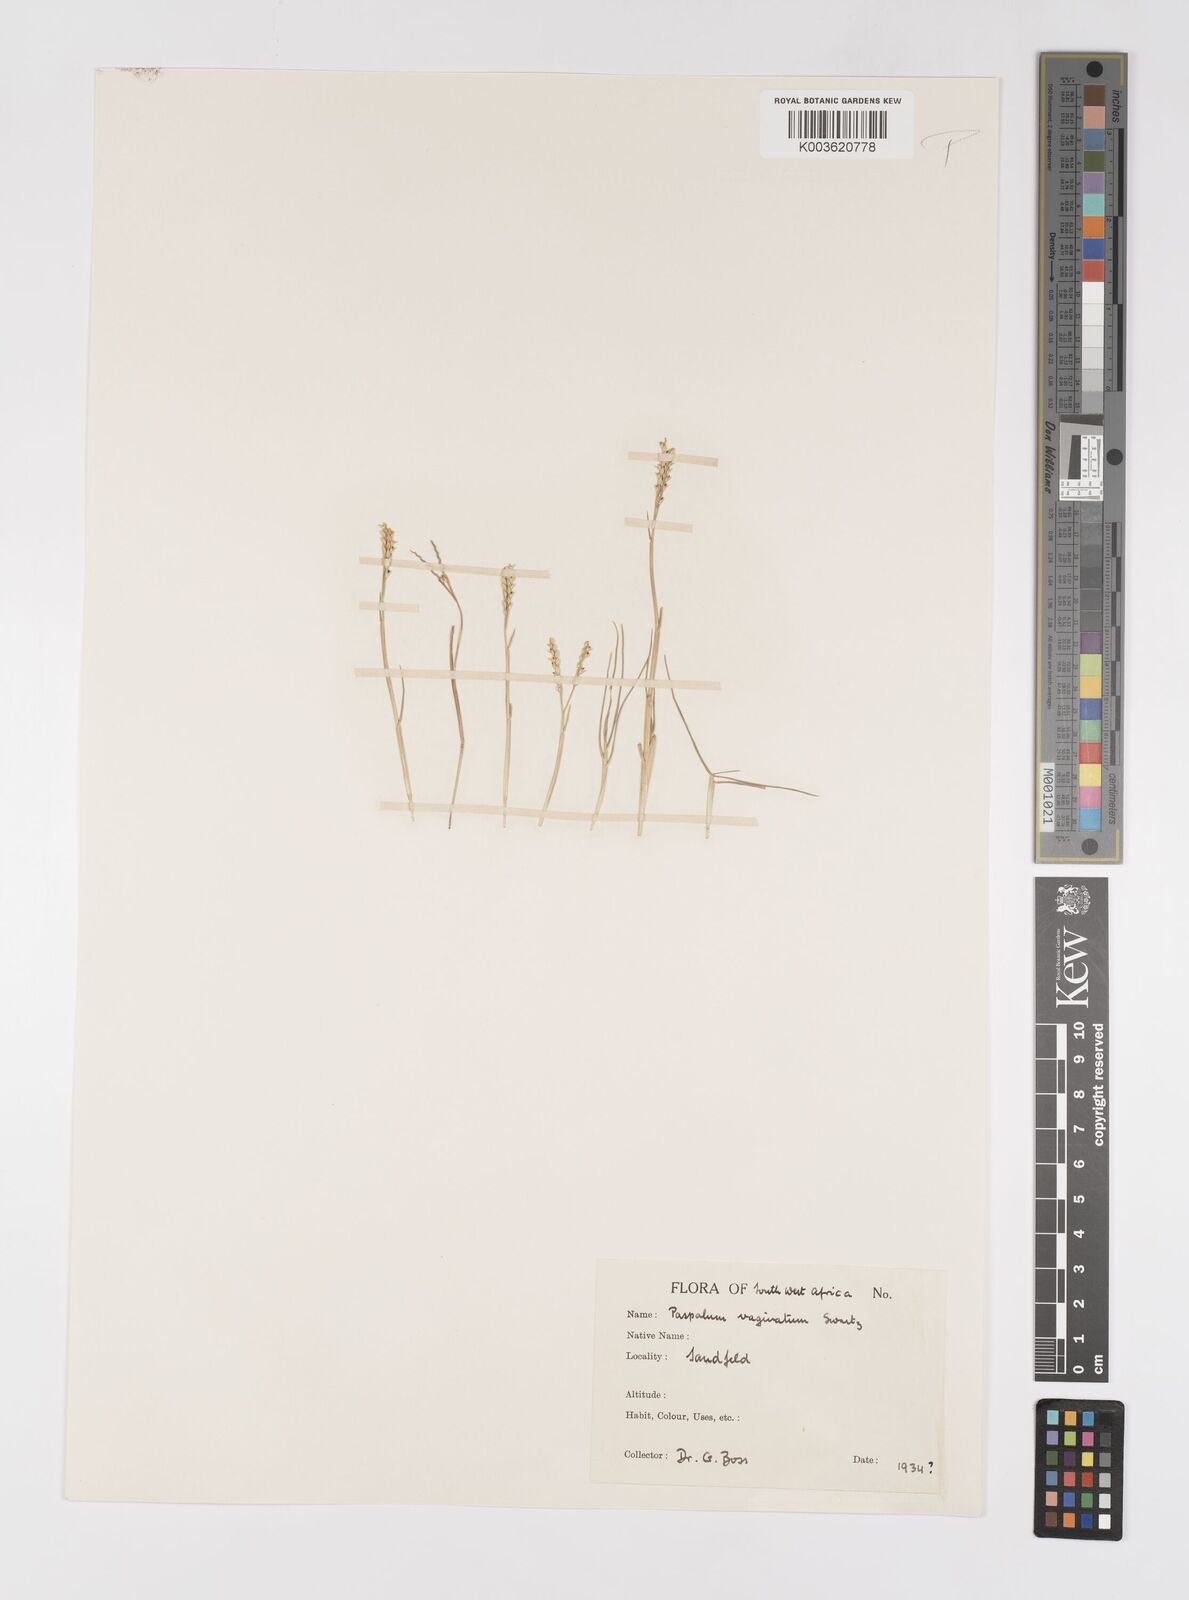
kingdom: Plantae
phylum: Tracheophyta
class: Liliopsida
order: Poales
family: Poaceae
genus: Paspalum
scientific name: Paspalum vaginatum
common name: Seashore paspalum
